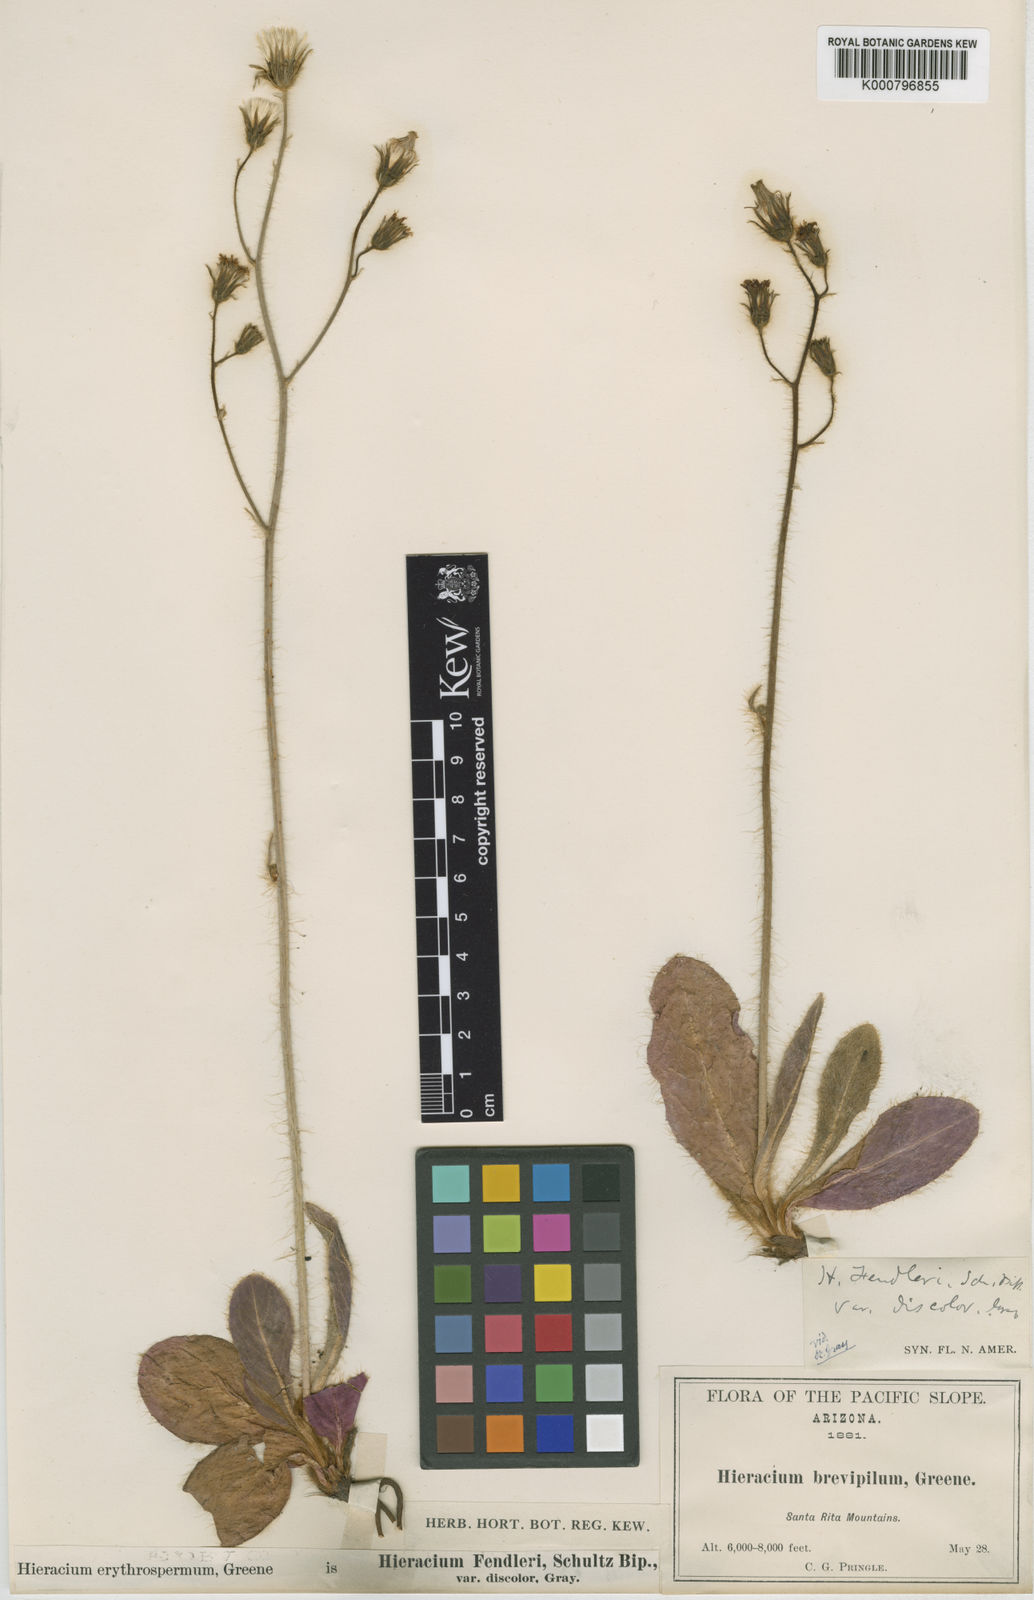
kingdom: Plantae
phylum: Tracheophyta
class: Magnoliopsida
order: Asterales
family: Asteraceae
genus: Hieracium
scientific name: Hieracium fendleri
